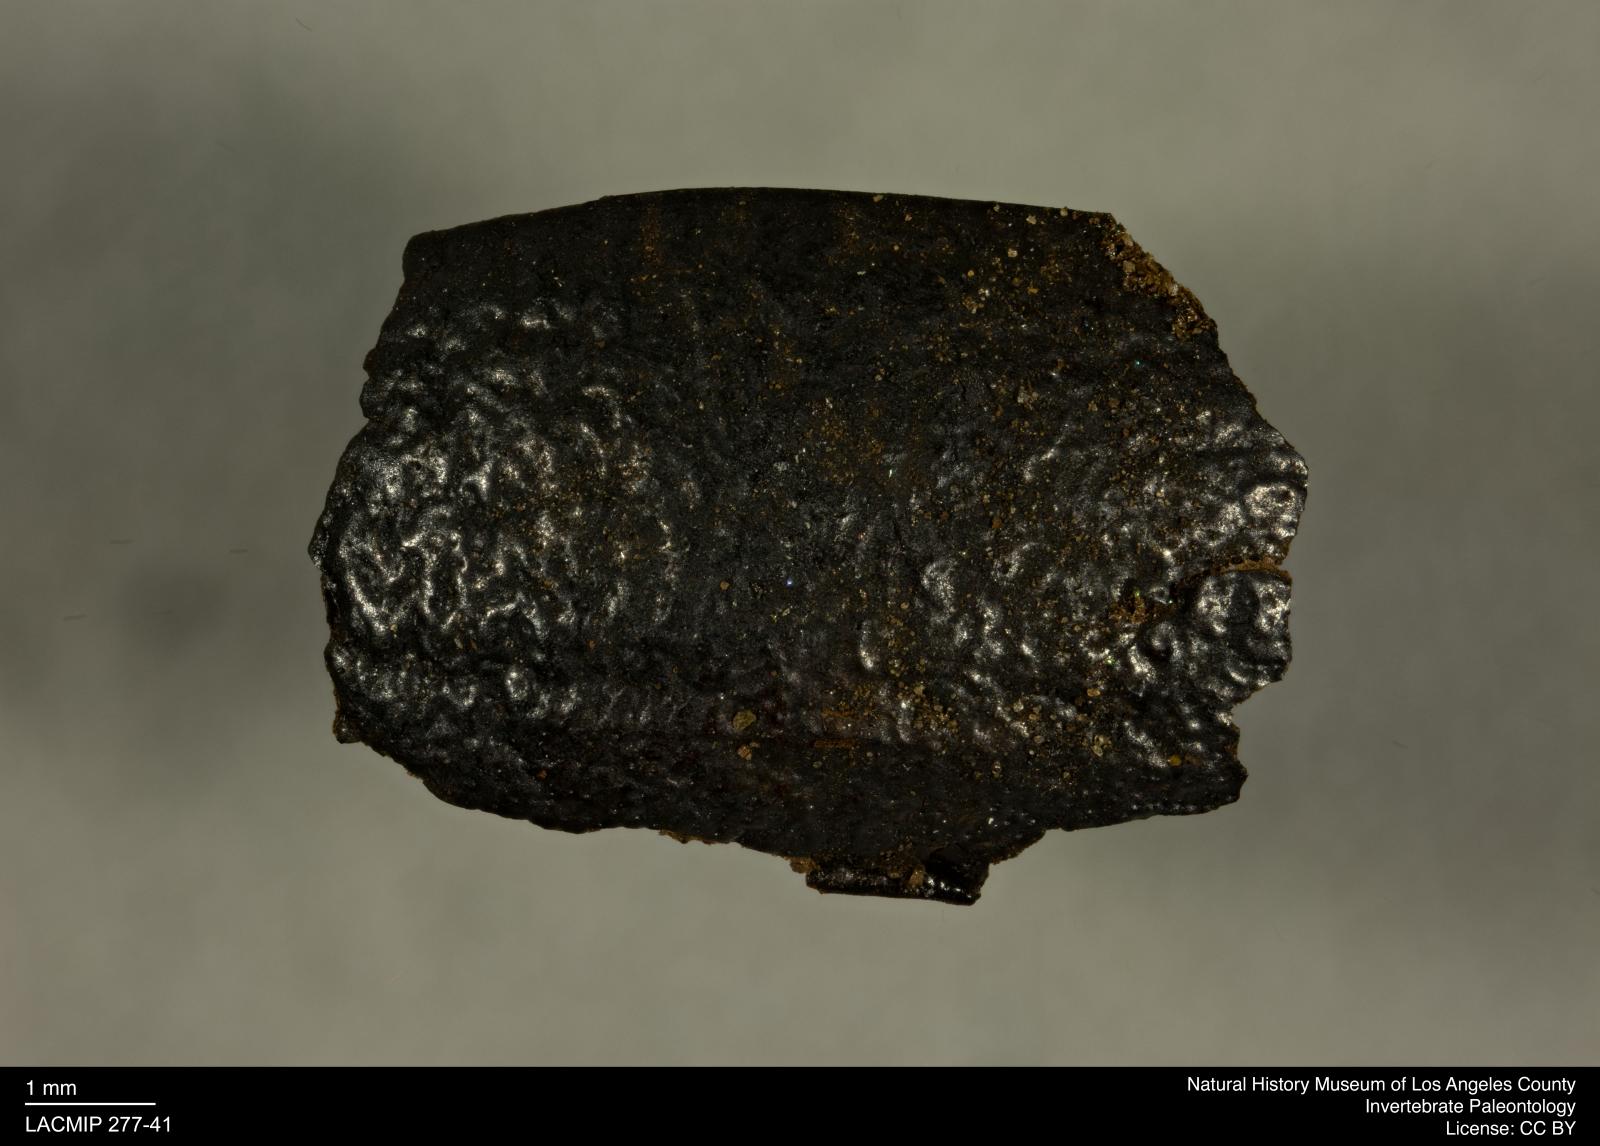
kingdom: Animalia
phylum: Arthropoda
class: Insecta
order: Coleoptera
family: Tenebrionidae
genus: Coniontis
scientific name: Coniontis abdominalis
